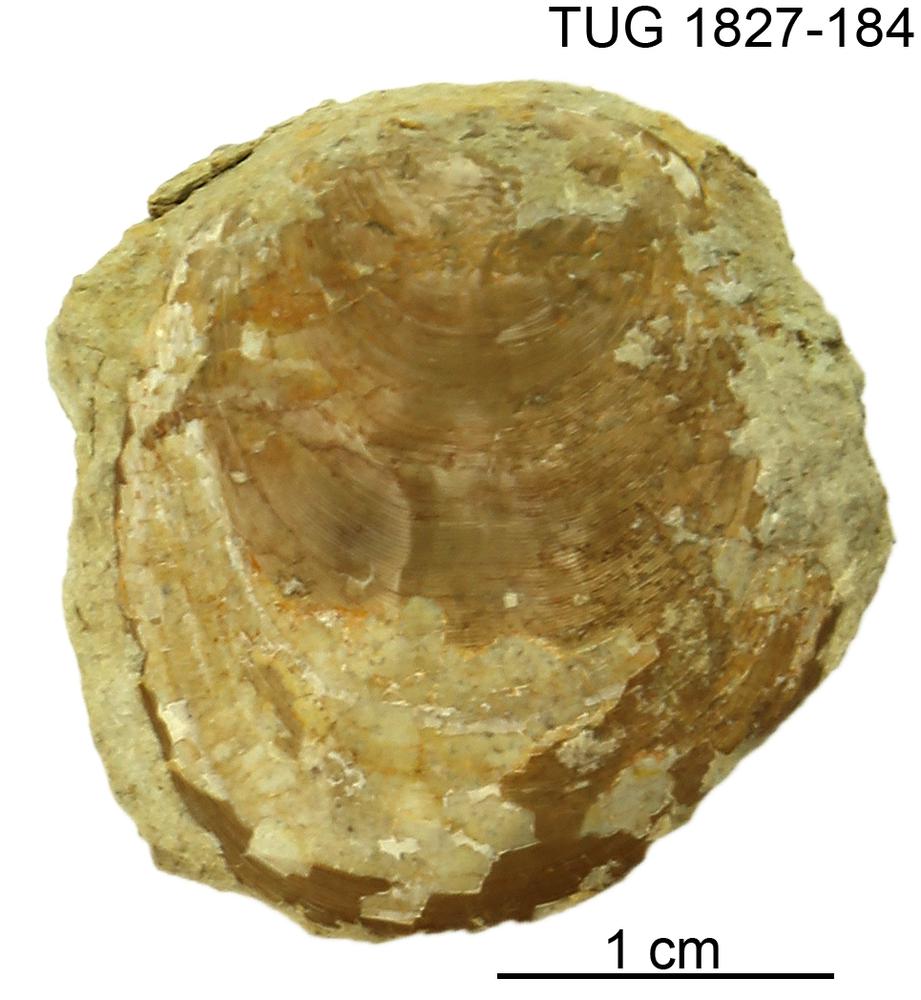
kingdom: Animalia
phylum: Brachiopoda
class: Lingulata
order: Lingulida
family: Pseudolingulidae
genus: Pseudolingula
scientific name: Pseudolingula
